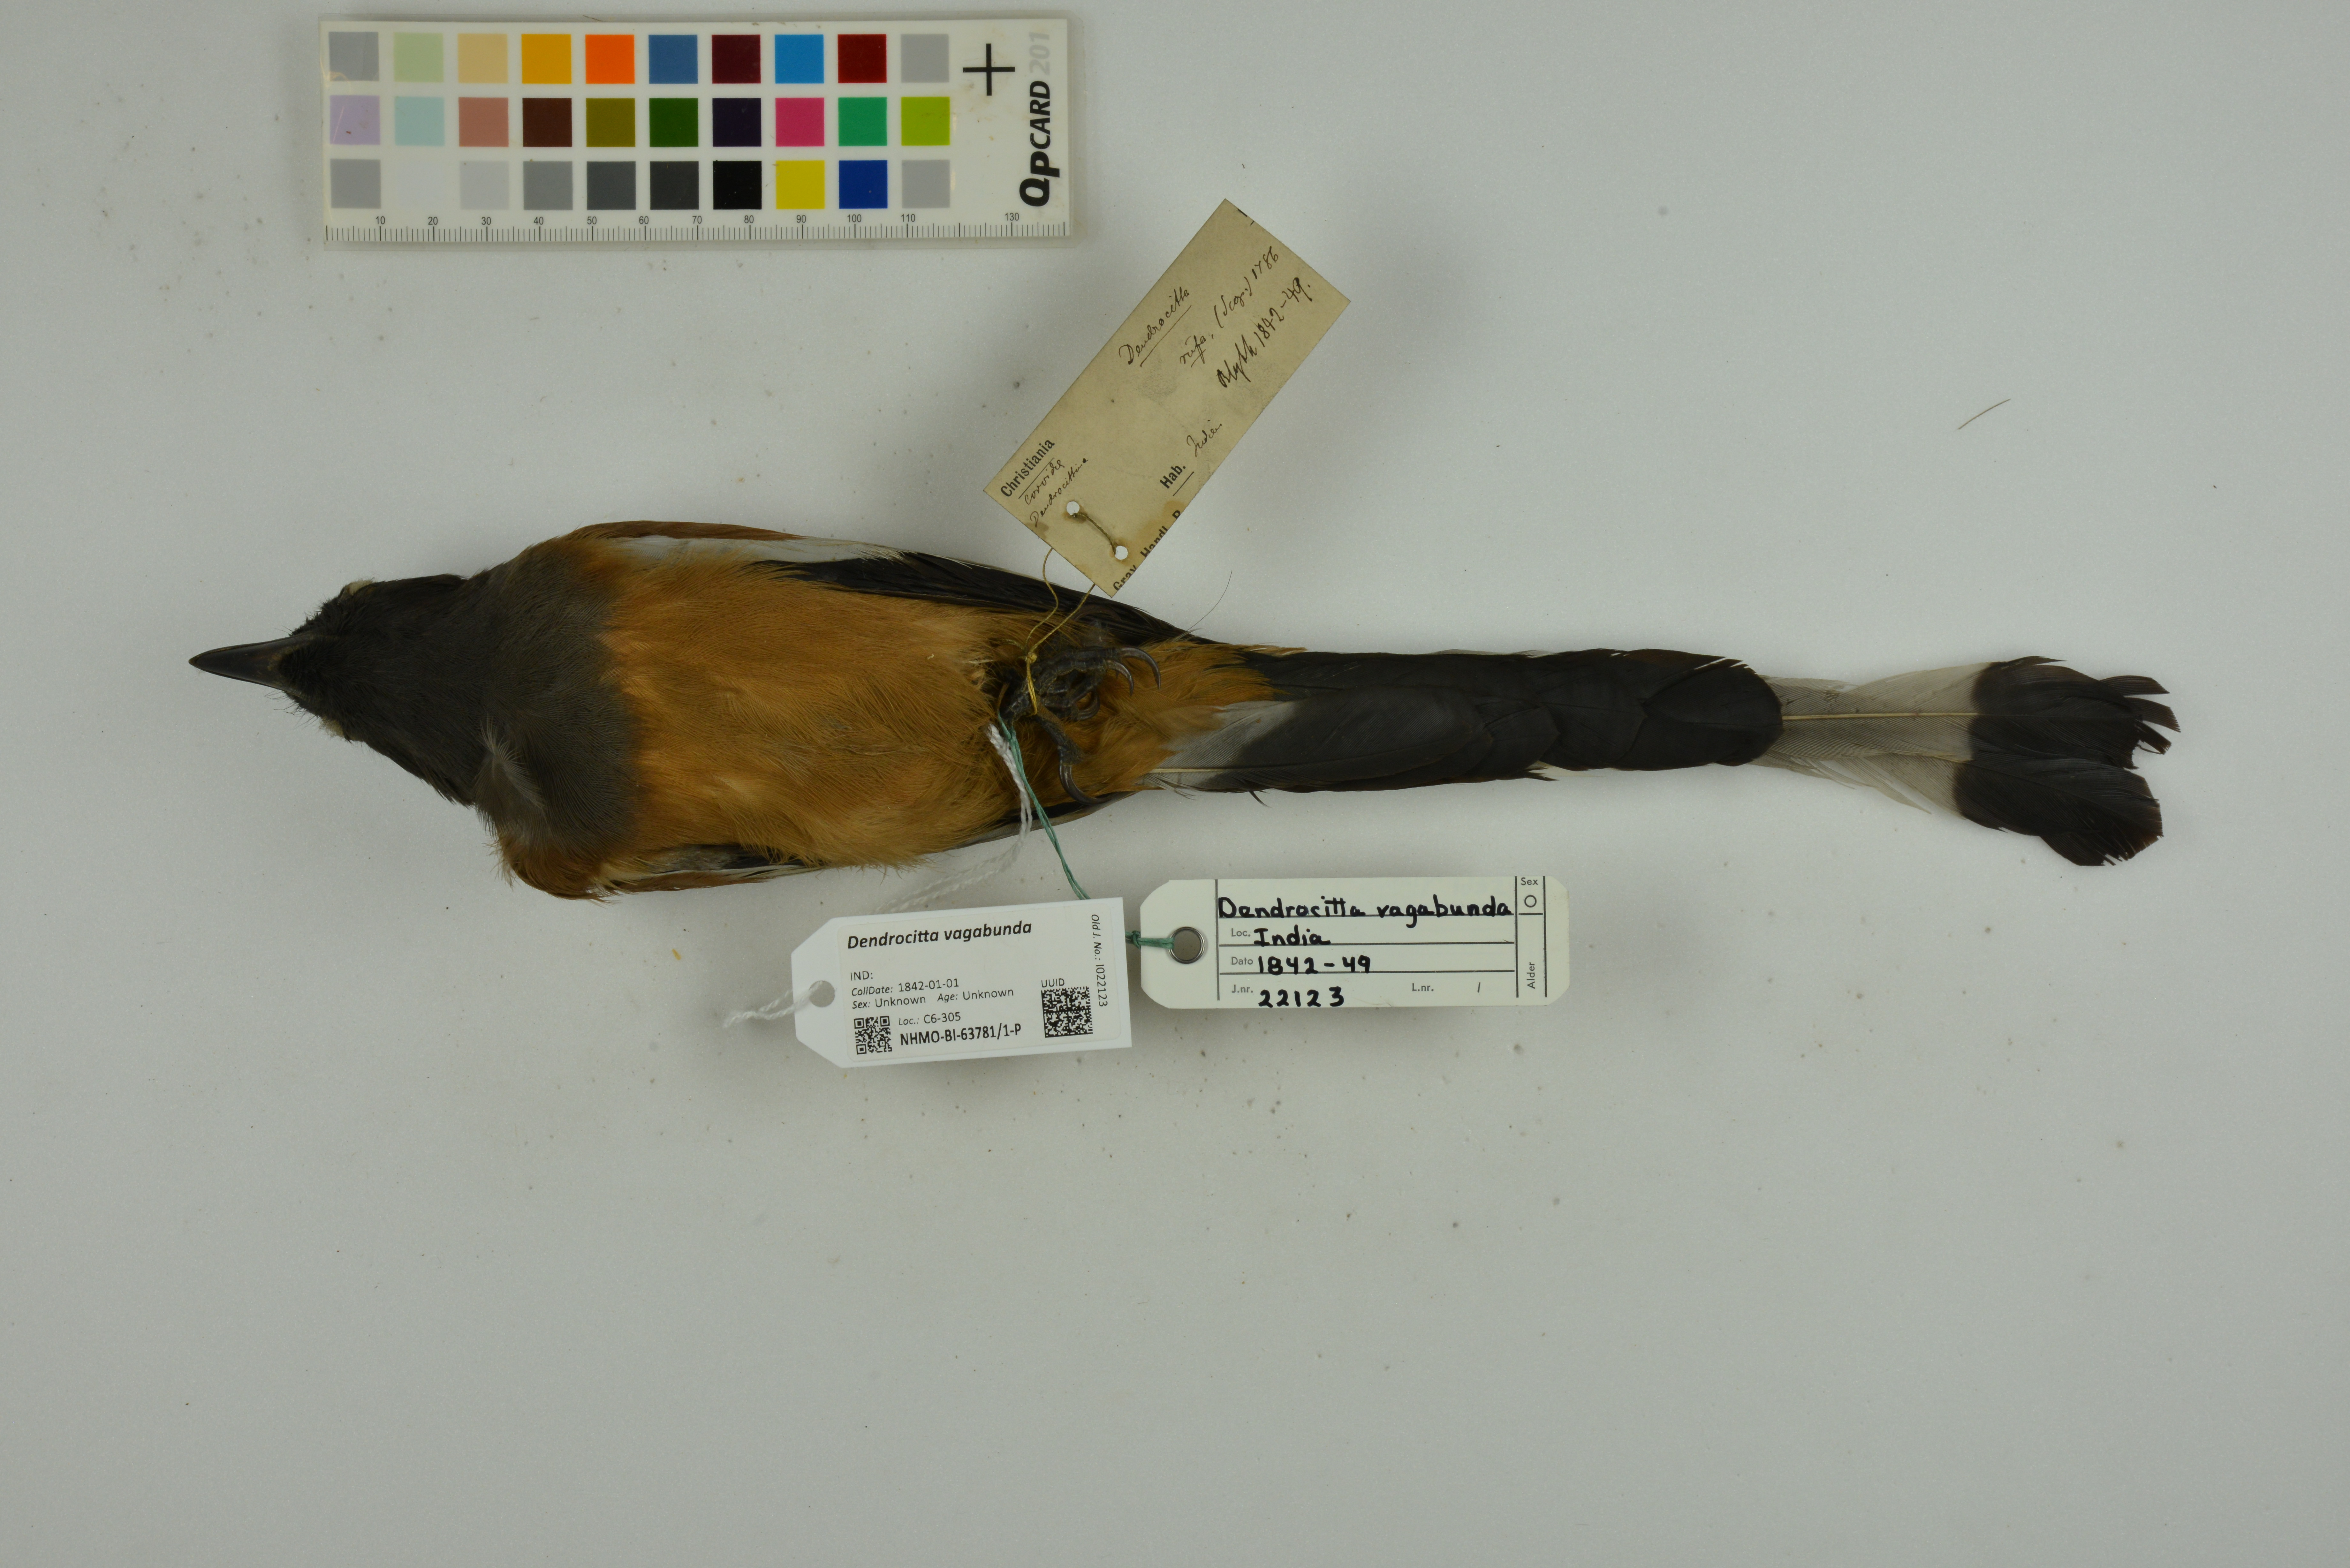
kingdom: Animalia
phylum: Chordata
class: Aves
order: Passeriformes
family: Corvidae
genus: Dendrocitta
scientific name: Dendrocitta vagabunda
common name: Rufous treepie
